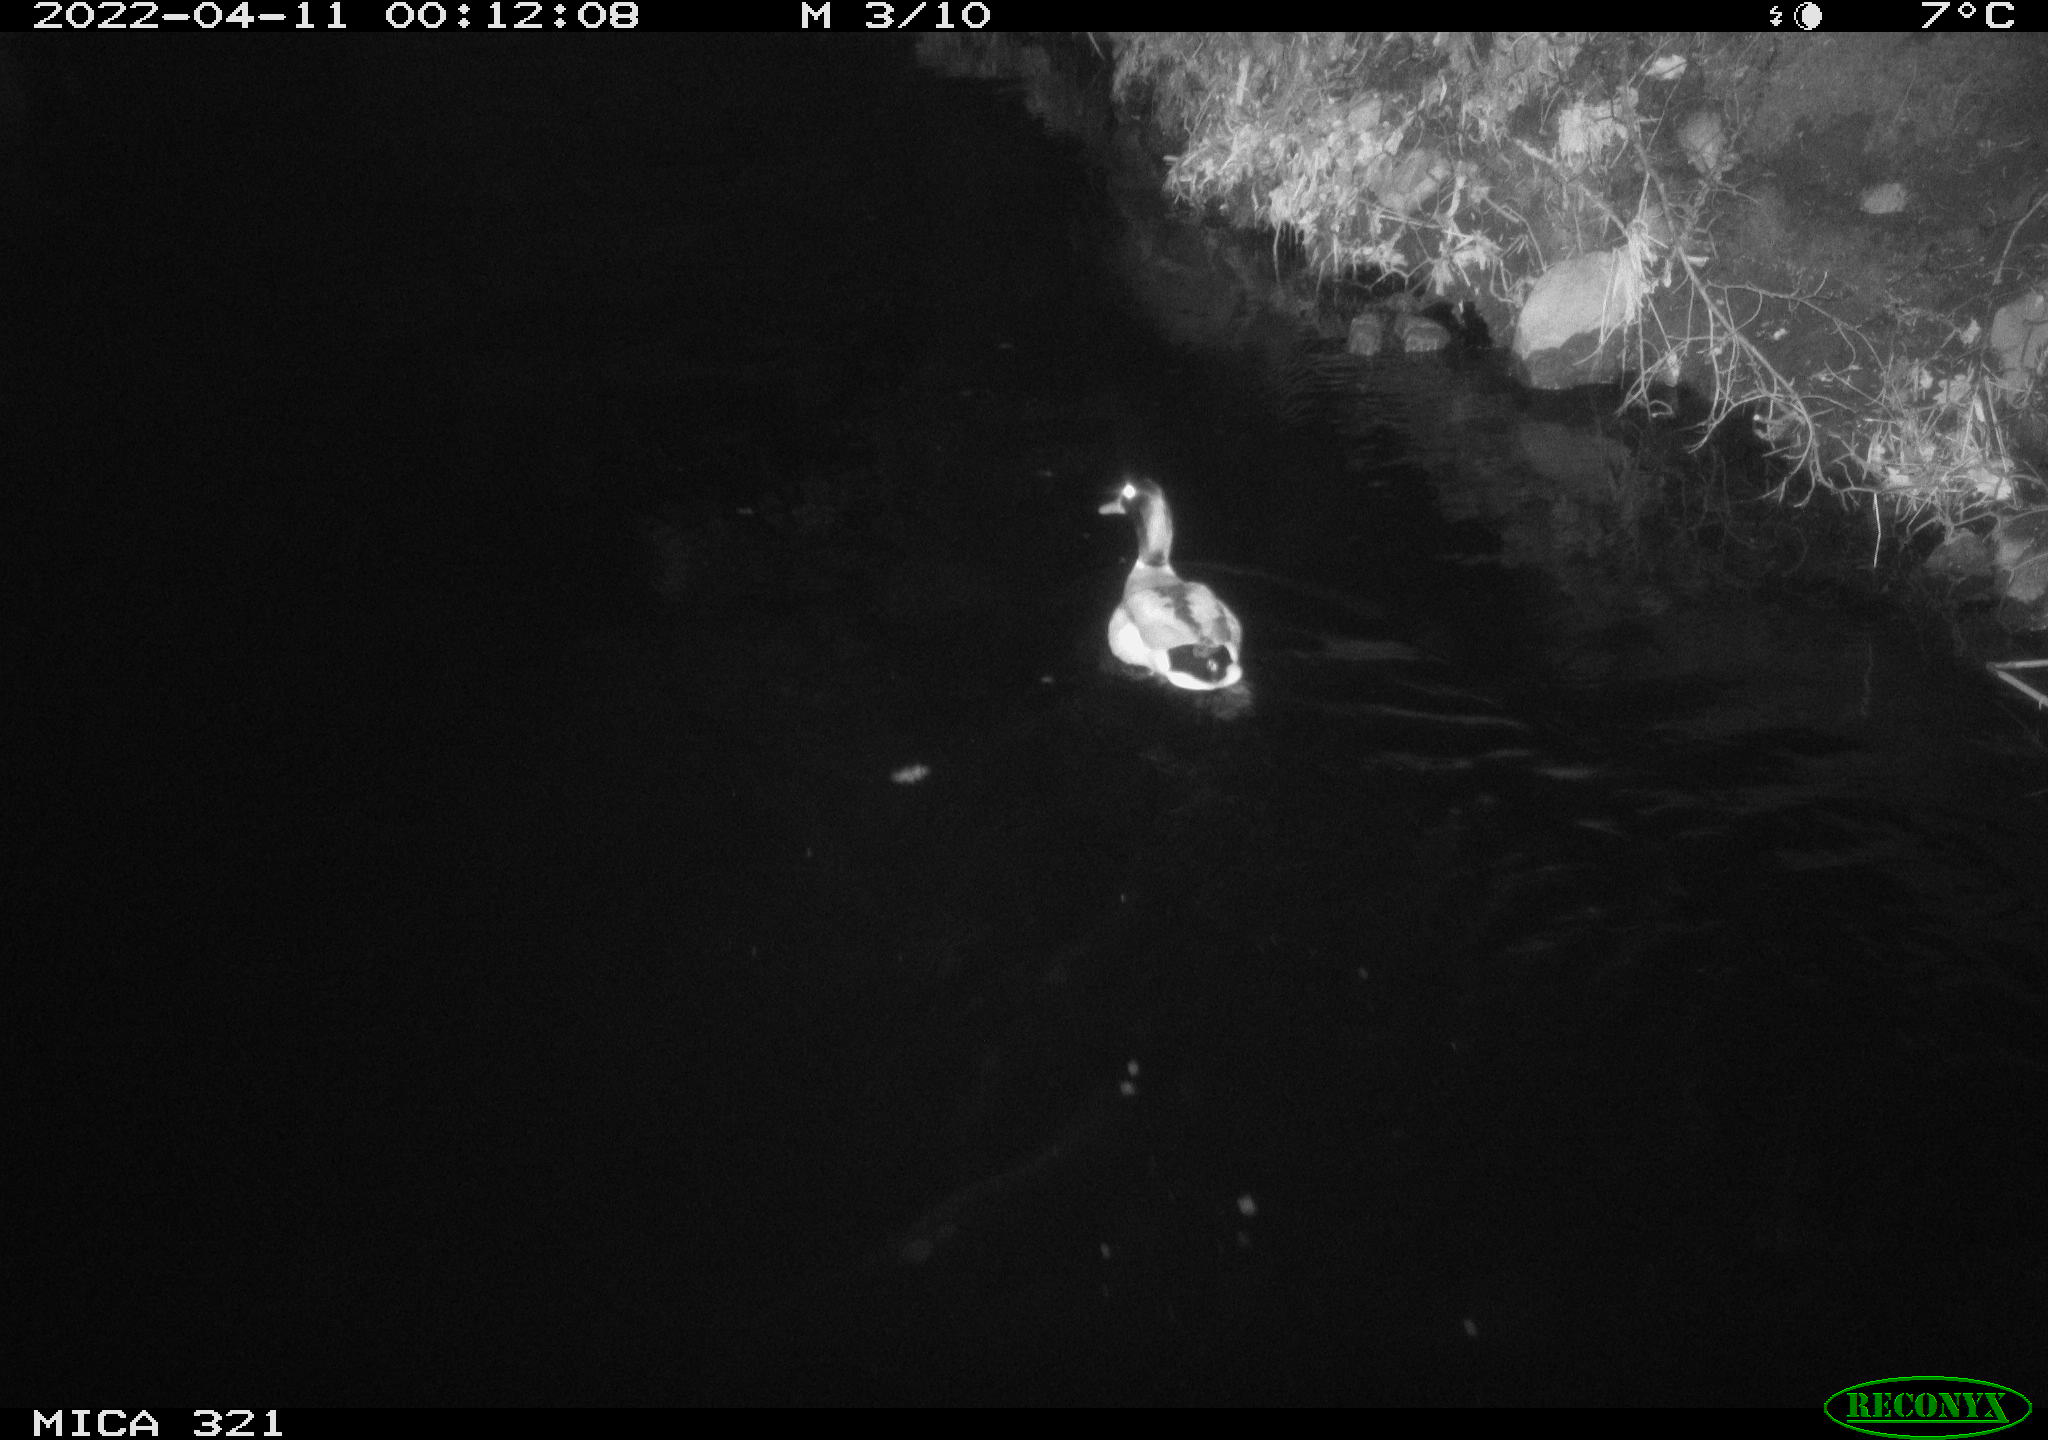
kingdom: Animalia
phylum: Chordata
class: Aves
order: Anseriformes
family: Anatidae
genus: Anas
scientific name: Anas platyrhynchos
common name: Mallard
